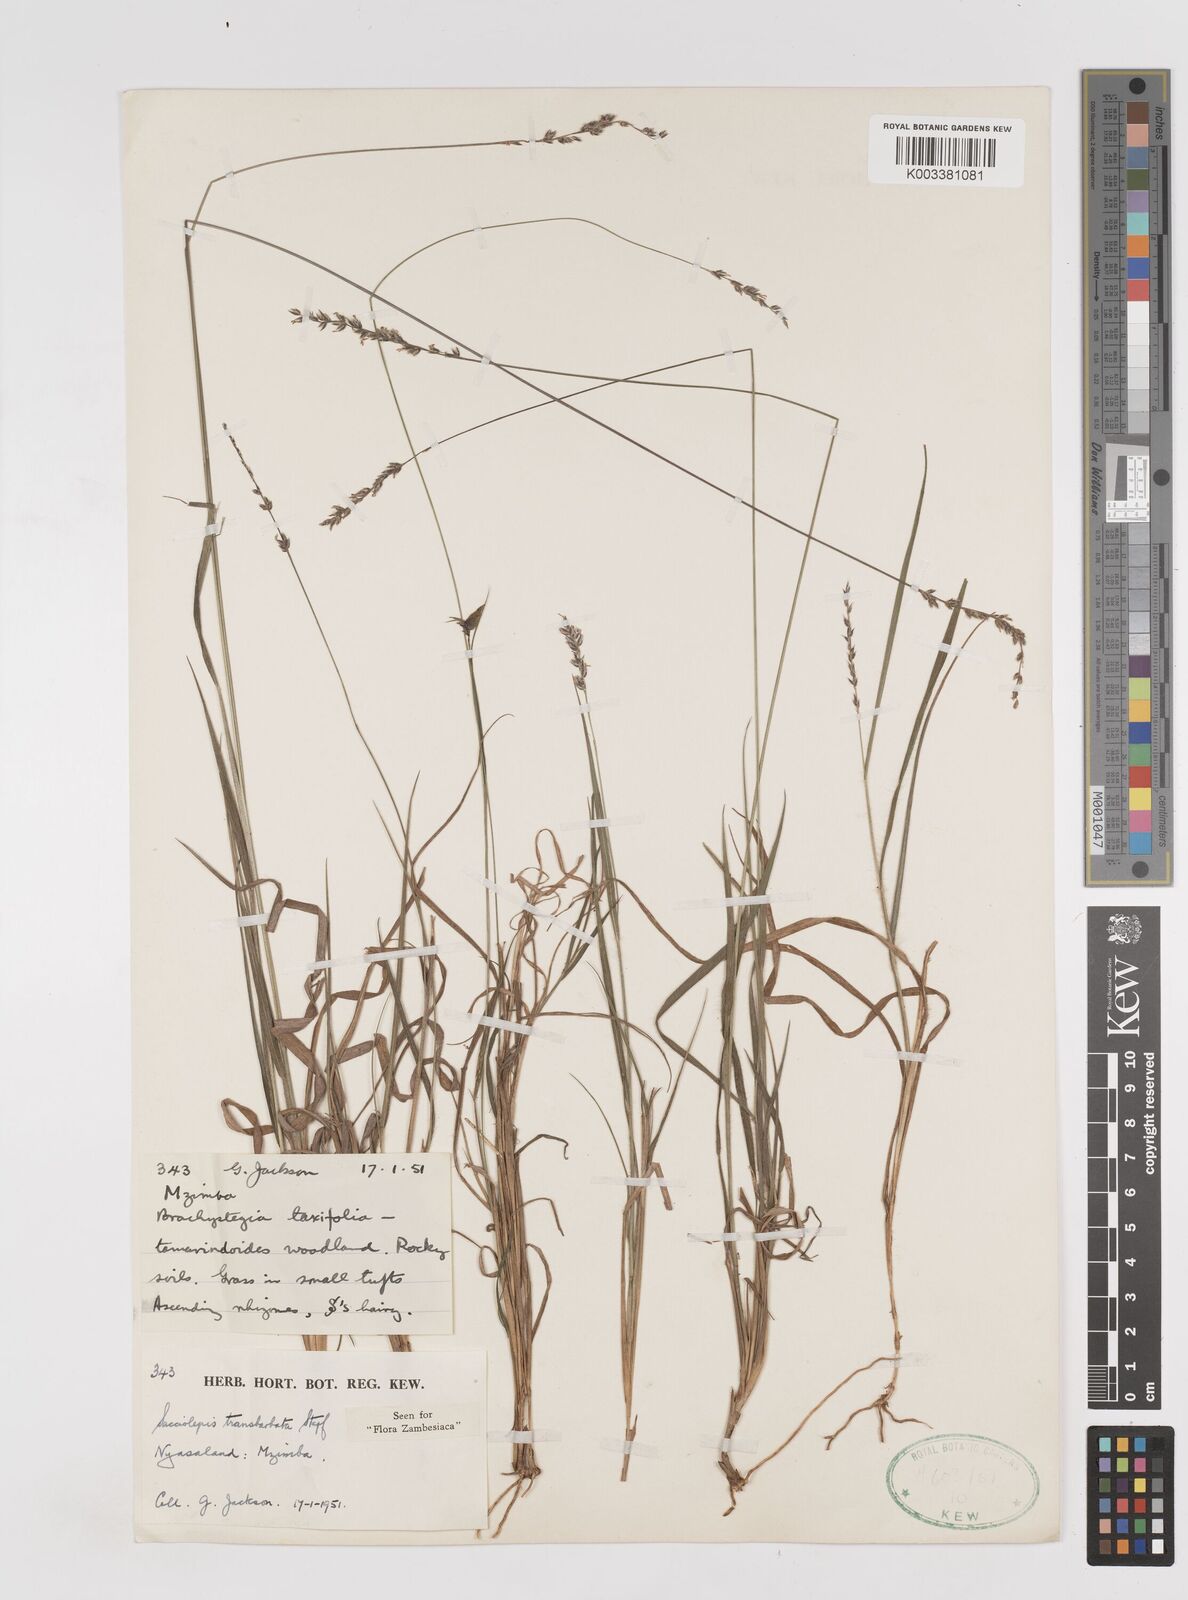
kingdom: Plantae
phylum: Tracheophyta
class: Liliopsida
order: Poales
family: Poaceae
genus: Sacciolepis
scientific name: Sacciolepis transbarbata
